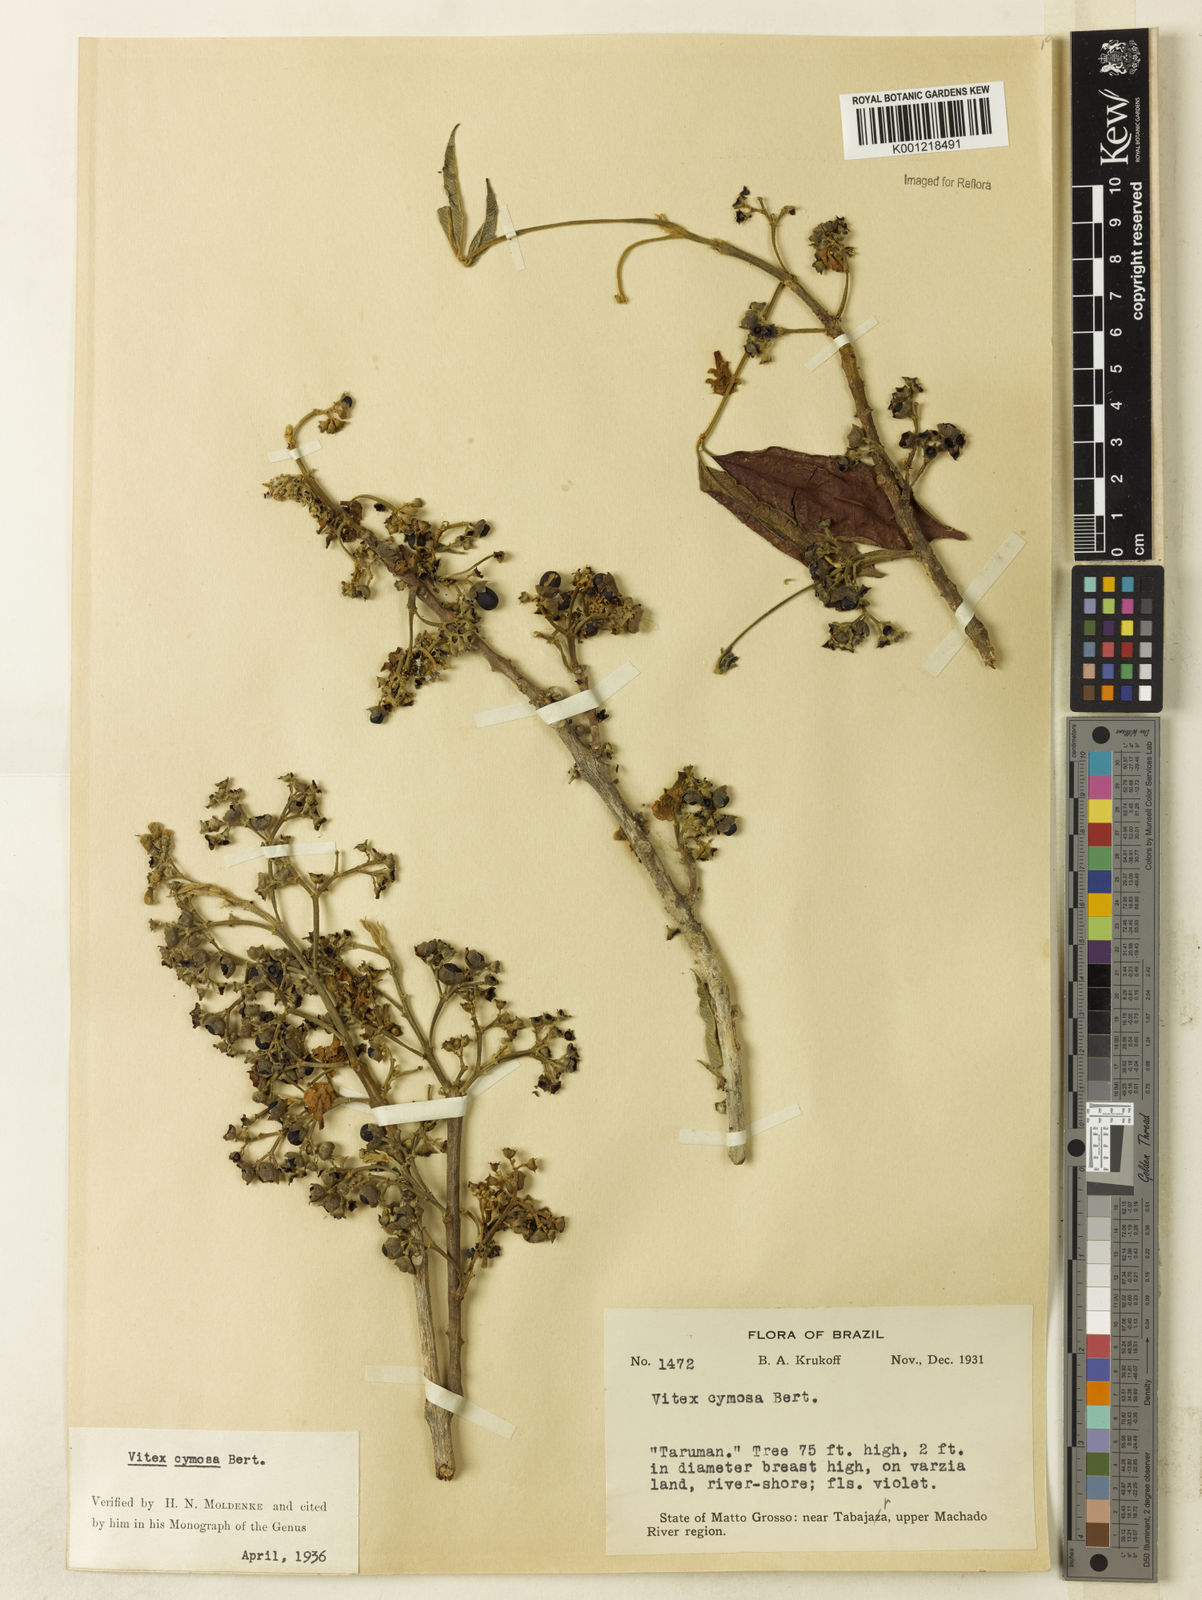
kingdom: Plantae
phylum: Tracheophyta
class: Magnoliopsida
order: Lamiales
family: Lamiaceae
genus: Vitex
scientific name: Vitex cymosa
